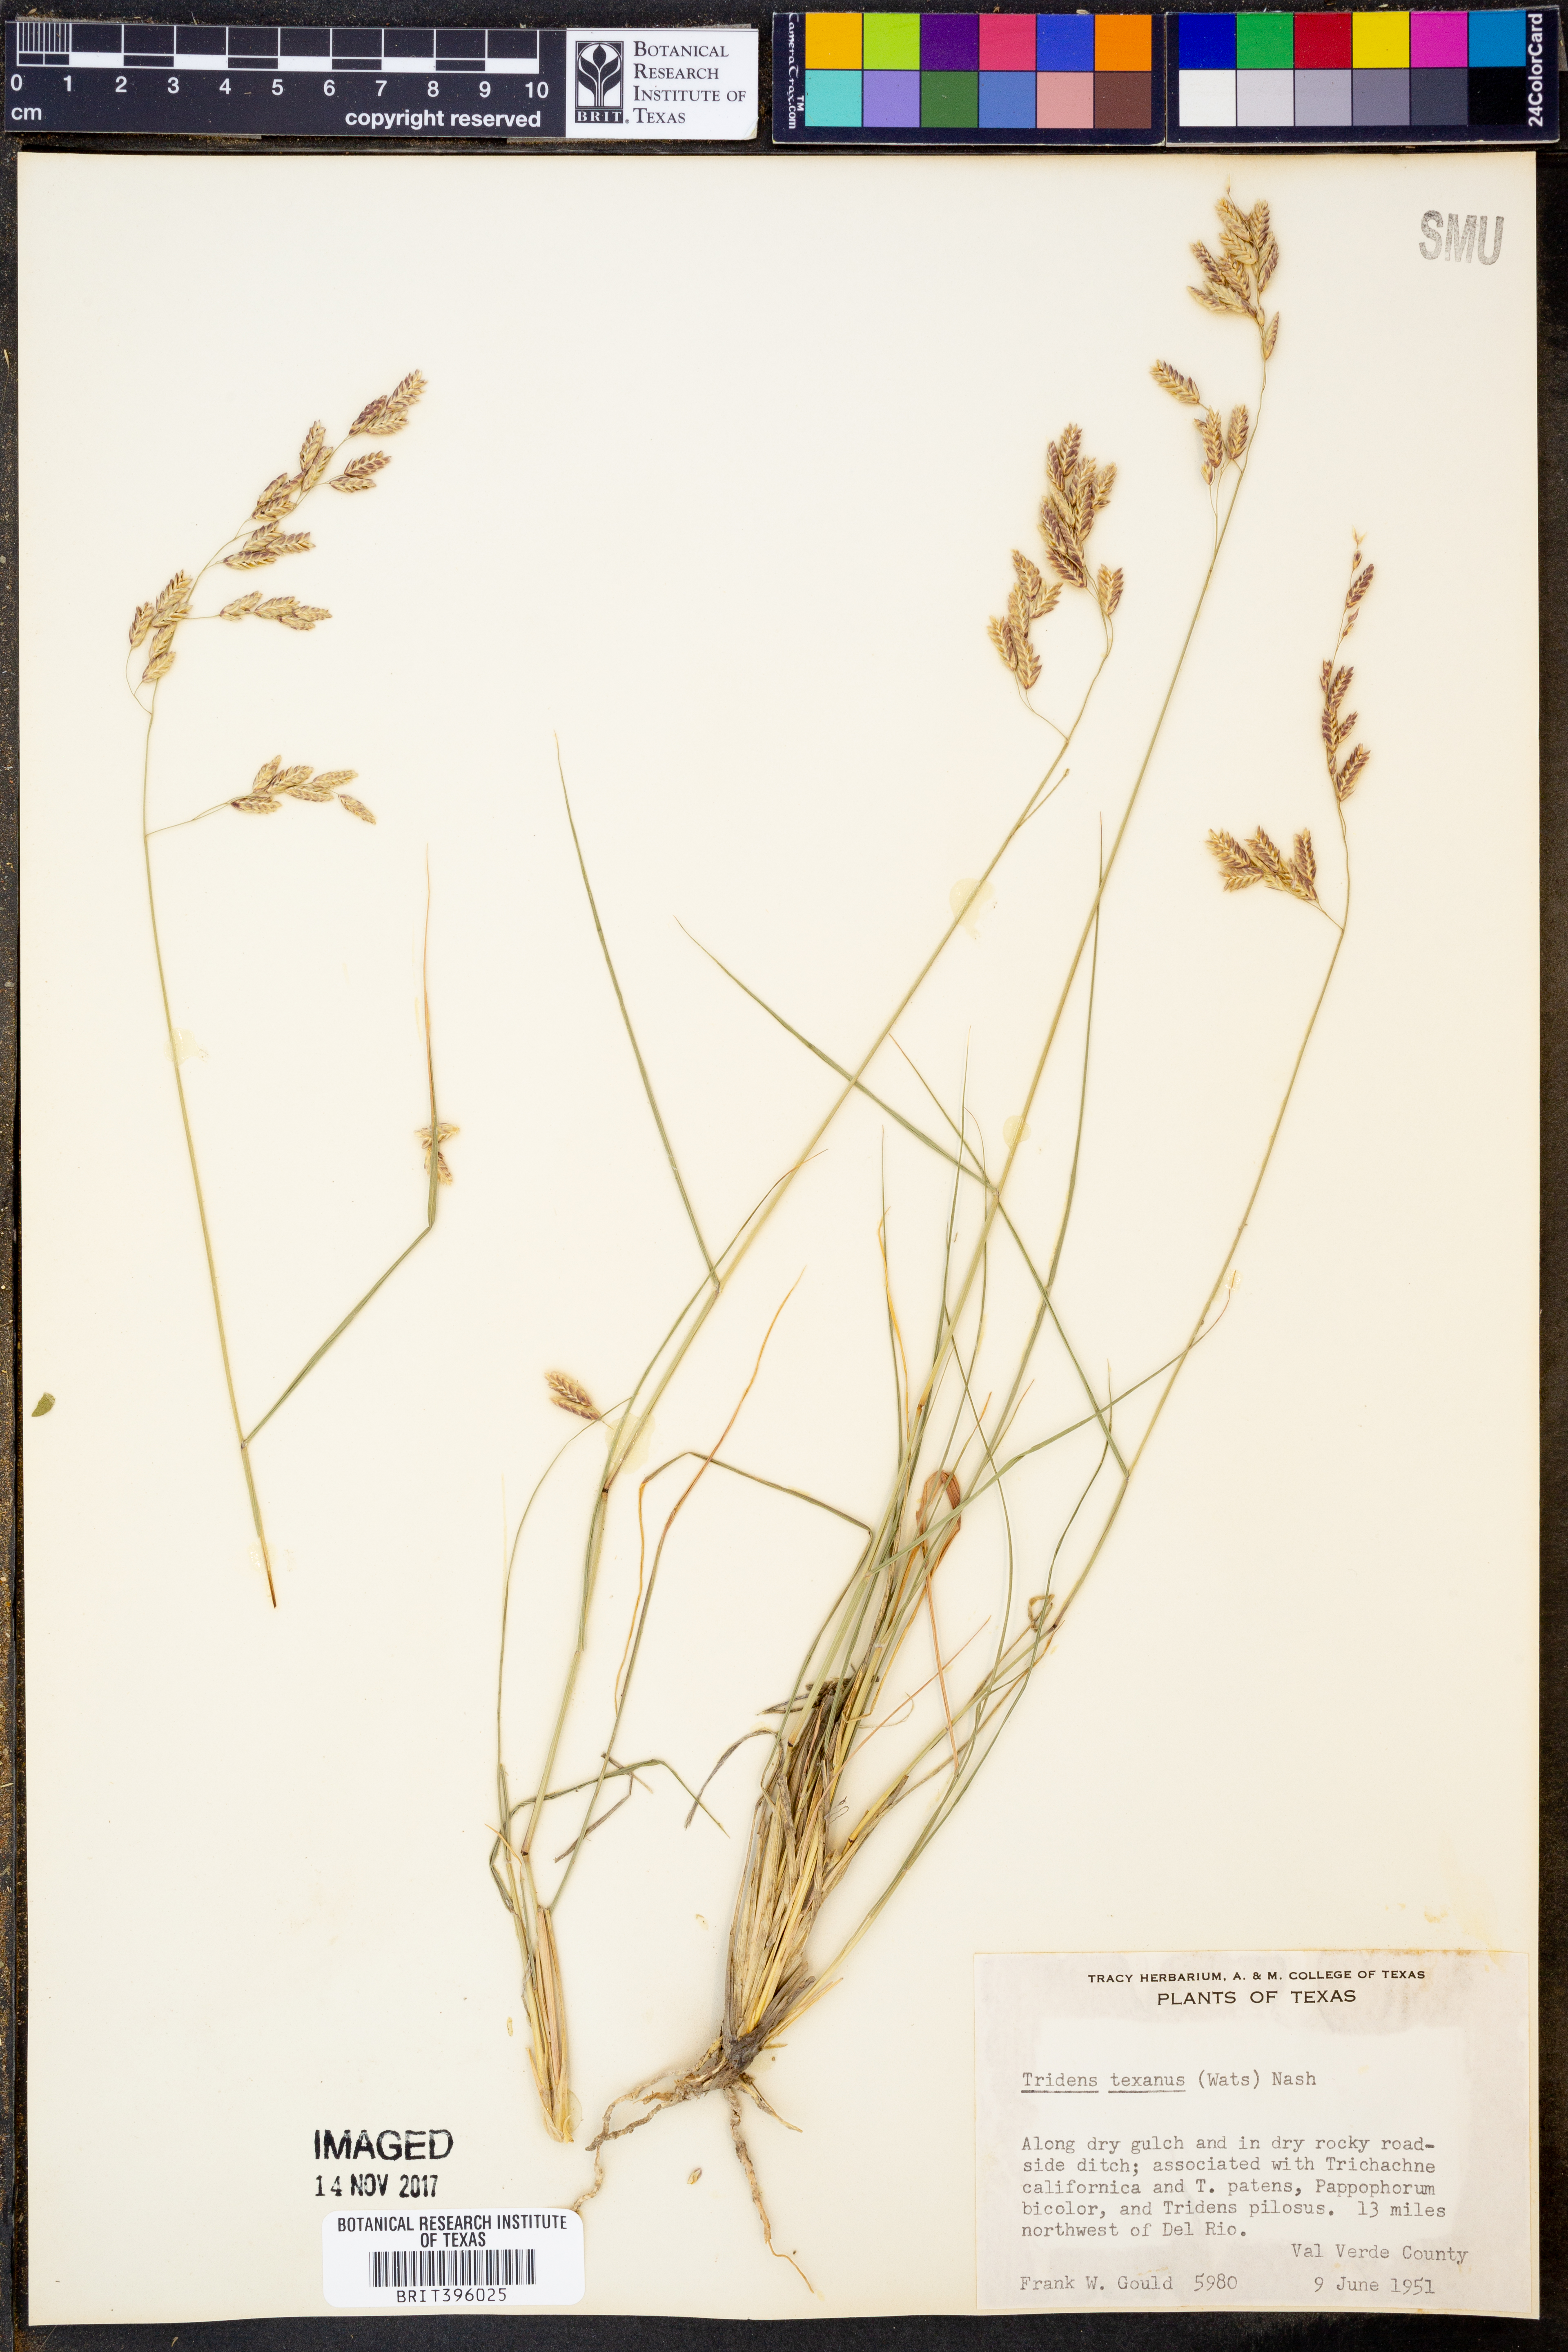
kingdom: Plantae
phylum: Tracheophyta
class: Liliopsida
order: Poales
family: Poaceae
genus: Tridens
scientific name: Tridens texanus
